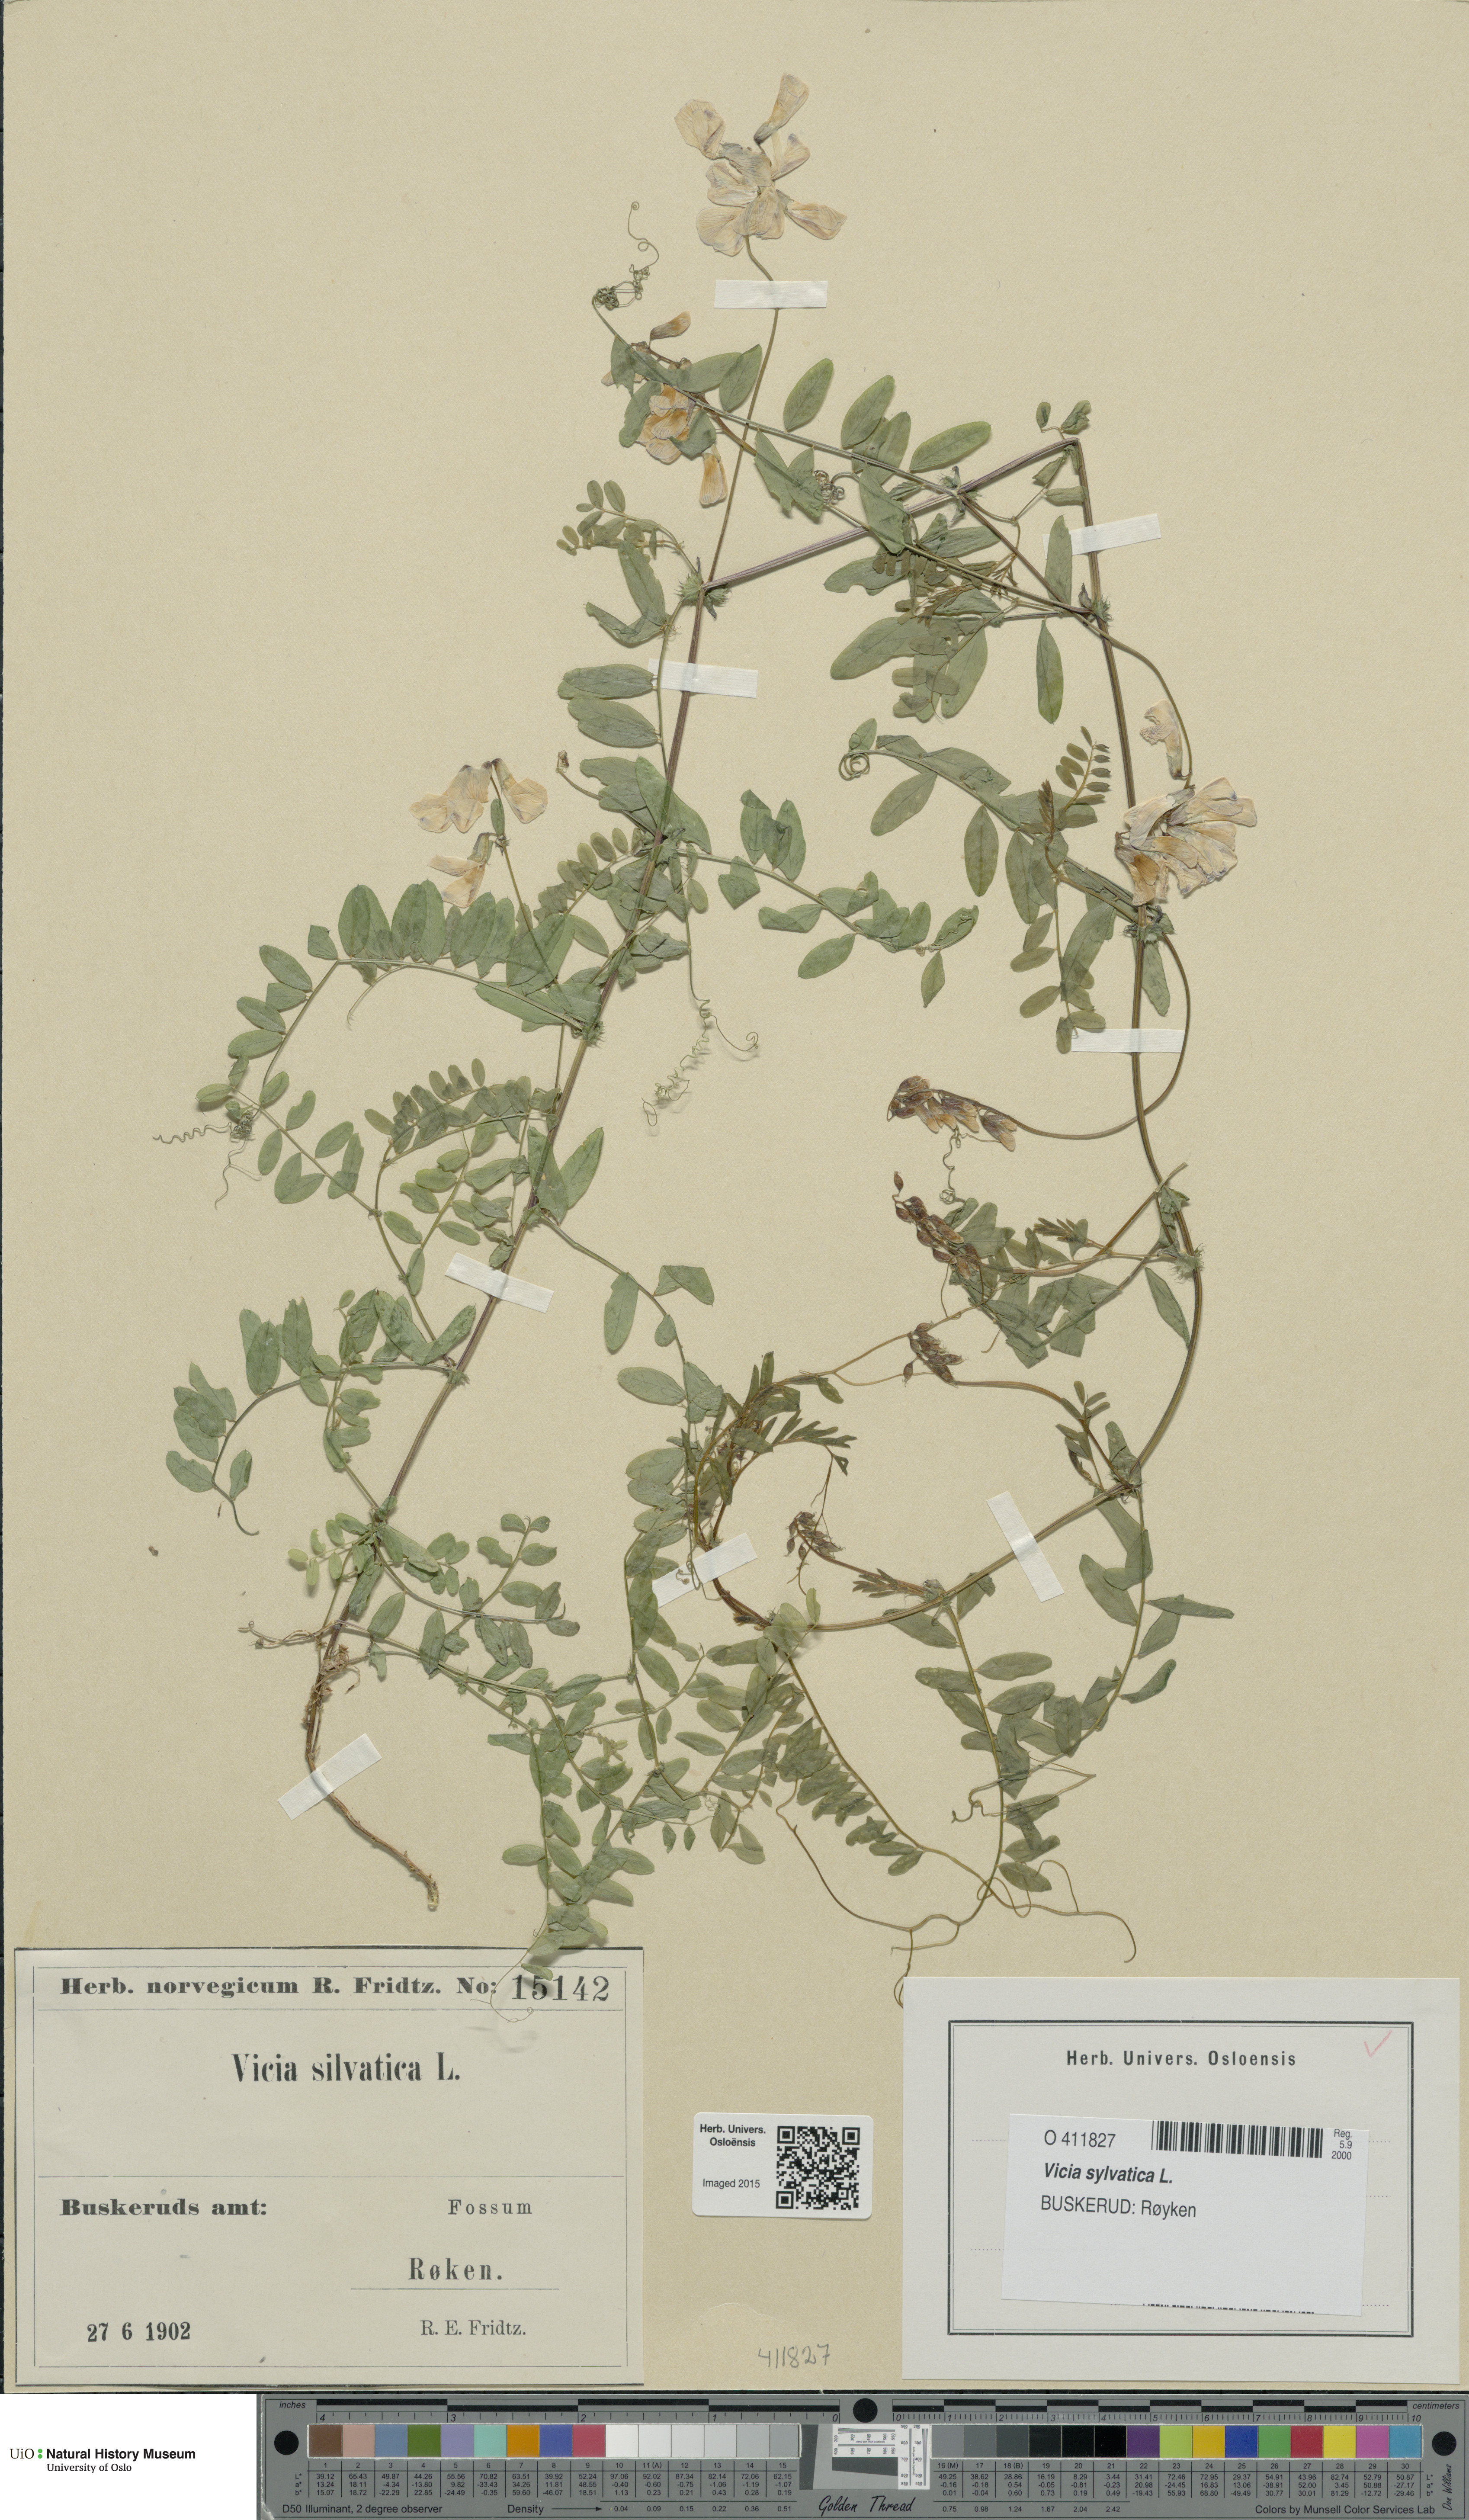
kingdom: Plantae
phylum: Tracheophyta
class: Magnoliopsida
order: Fabales
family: Fabaceae
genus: Vicia
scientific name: Vicia sylvatica
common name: Wood vetch
